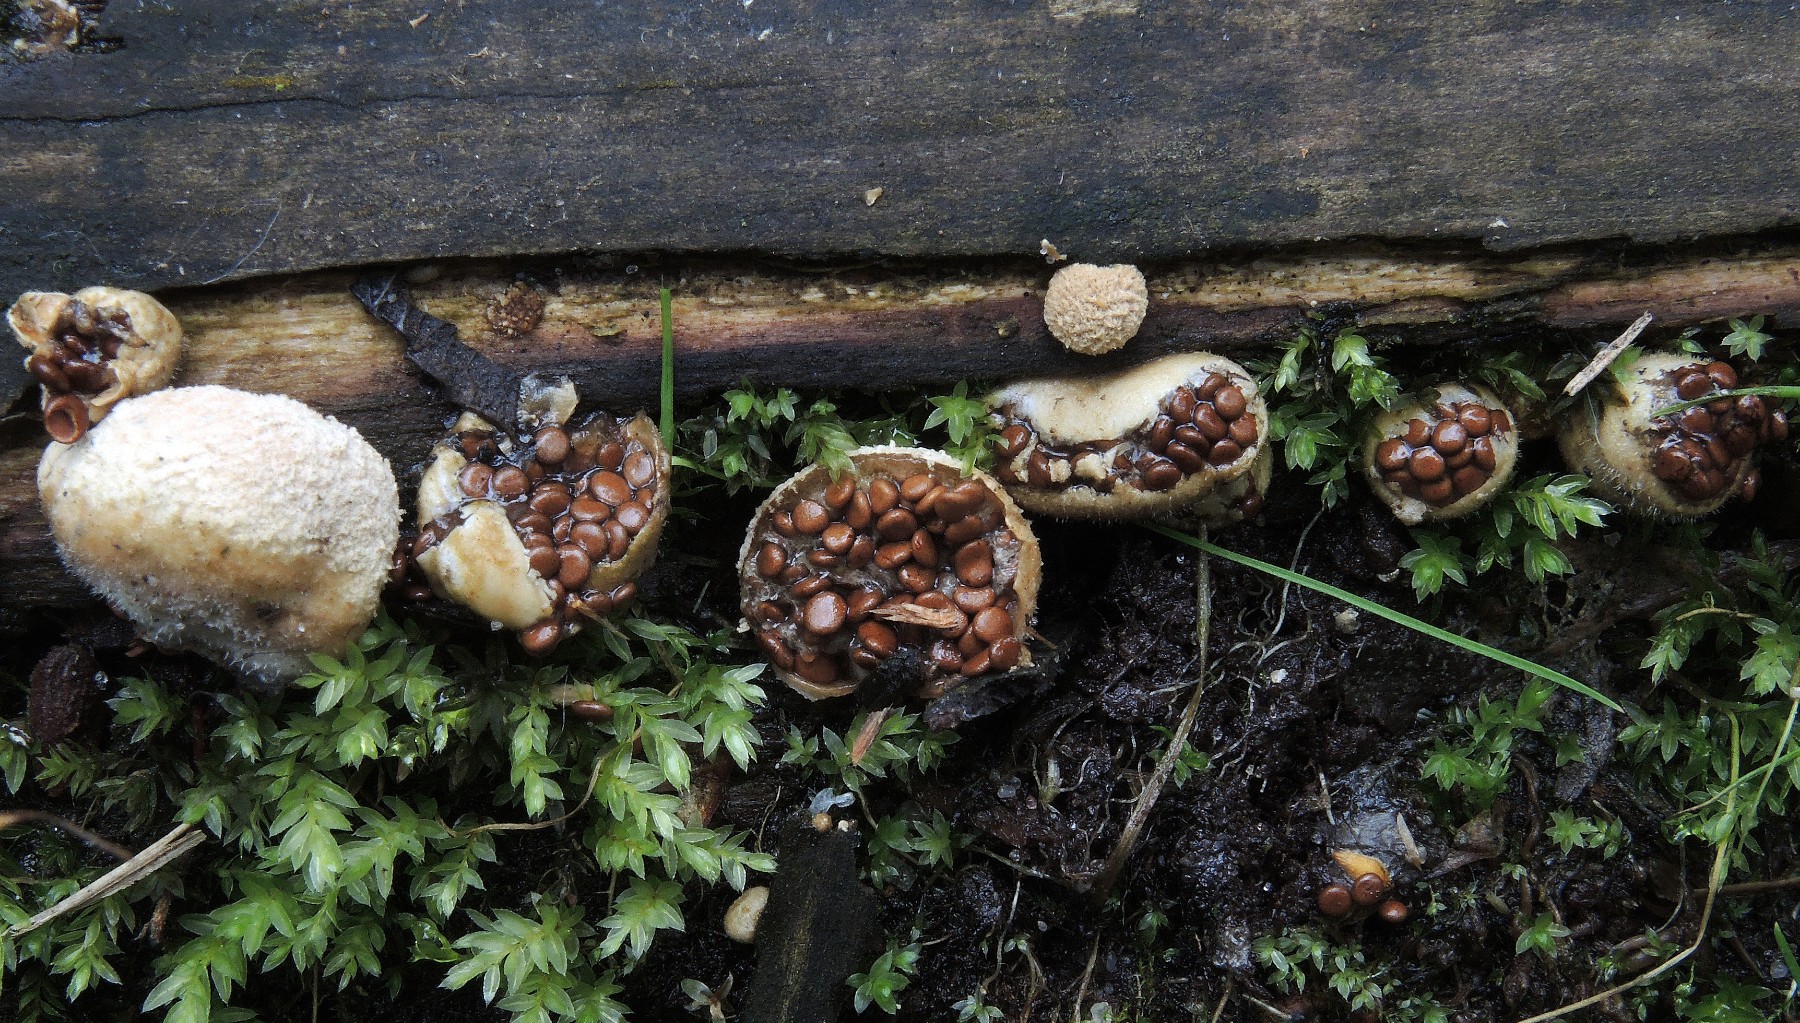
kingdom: Fungi
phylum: Basidiomycota
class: Agaricomycetes
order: Agaricales
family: Agaricaceae
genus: Nidularia
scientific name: Nidularia deformis
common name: pudesvamp
